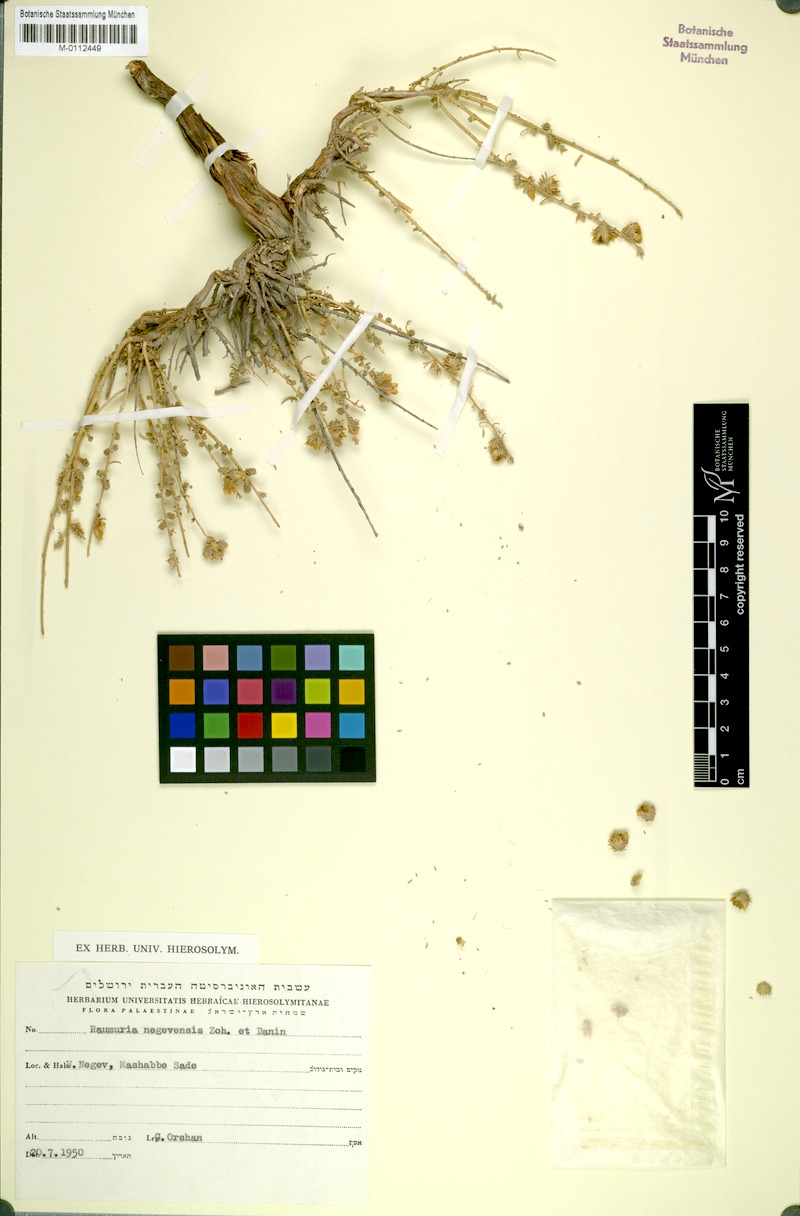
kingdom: Plantae
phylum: Tracheophyta
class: Magnoliopsida
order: Caryophyllales
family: Tamaricaceae
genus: Reaumuria
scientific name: Reaumuria negevensis
